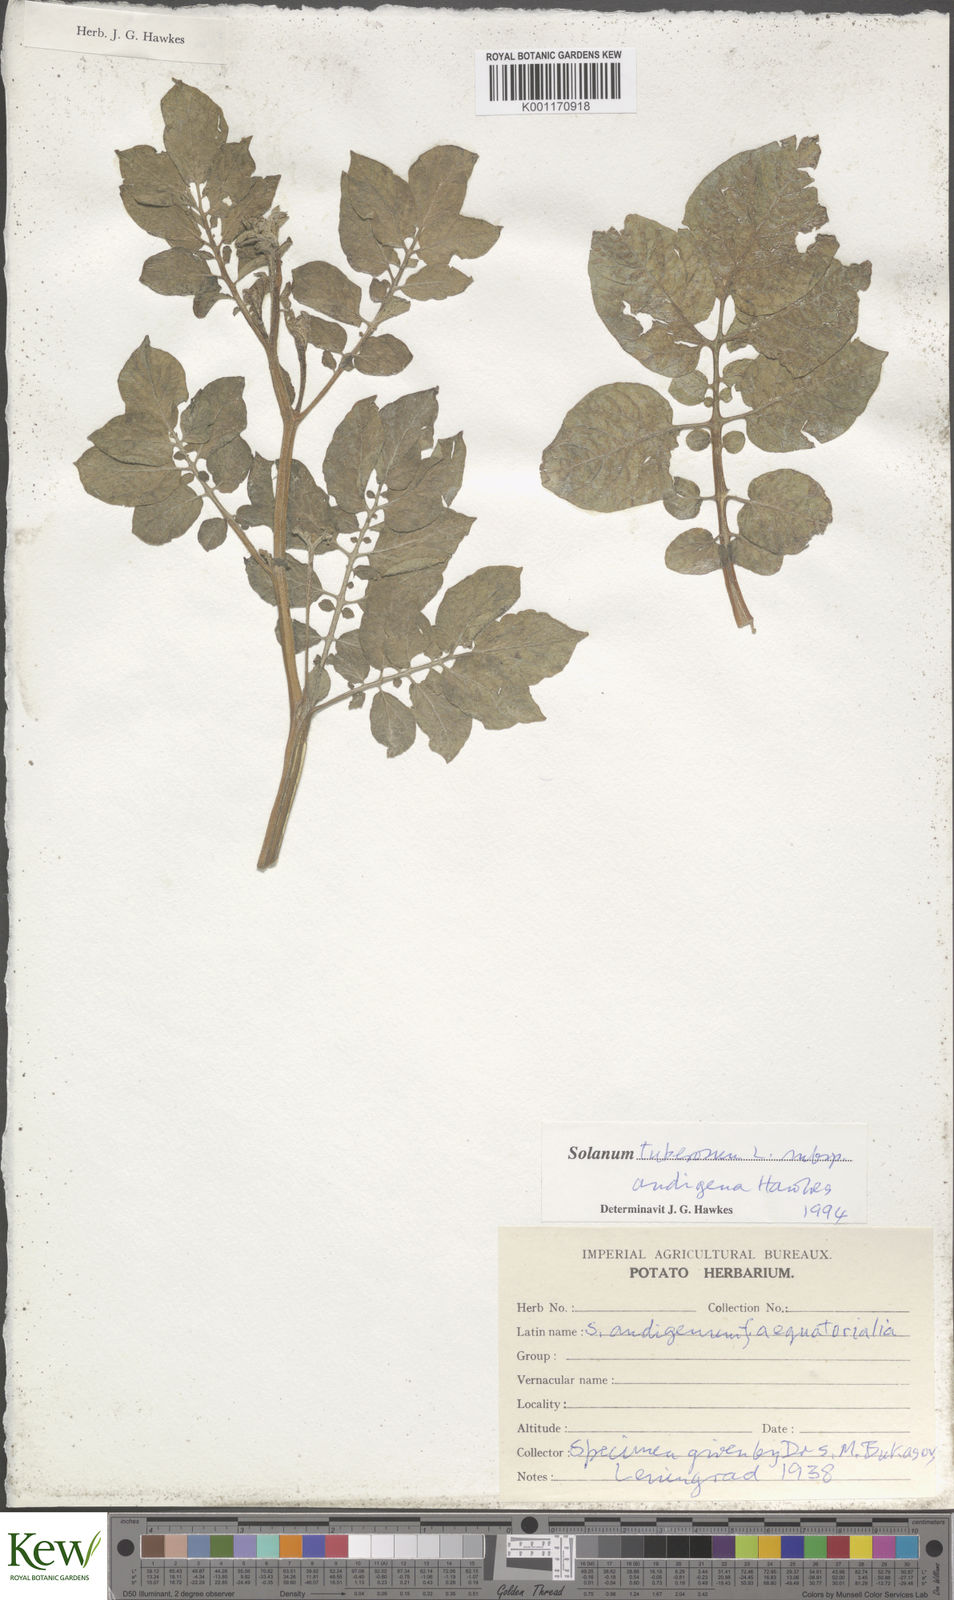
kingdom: Plantae
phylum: Tracheophyta
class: Magnoliopsida
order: Solanales
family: Solanaceae
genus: Solanum
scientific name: Solanum tuberosum
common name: Potato
